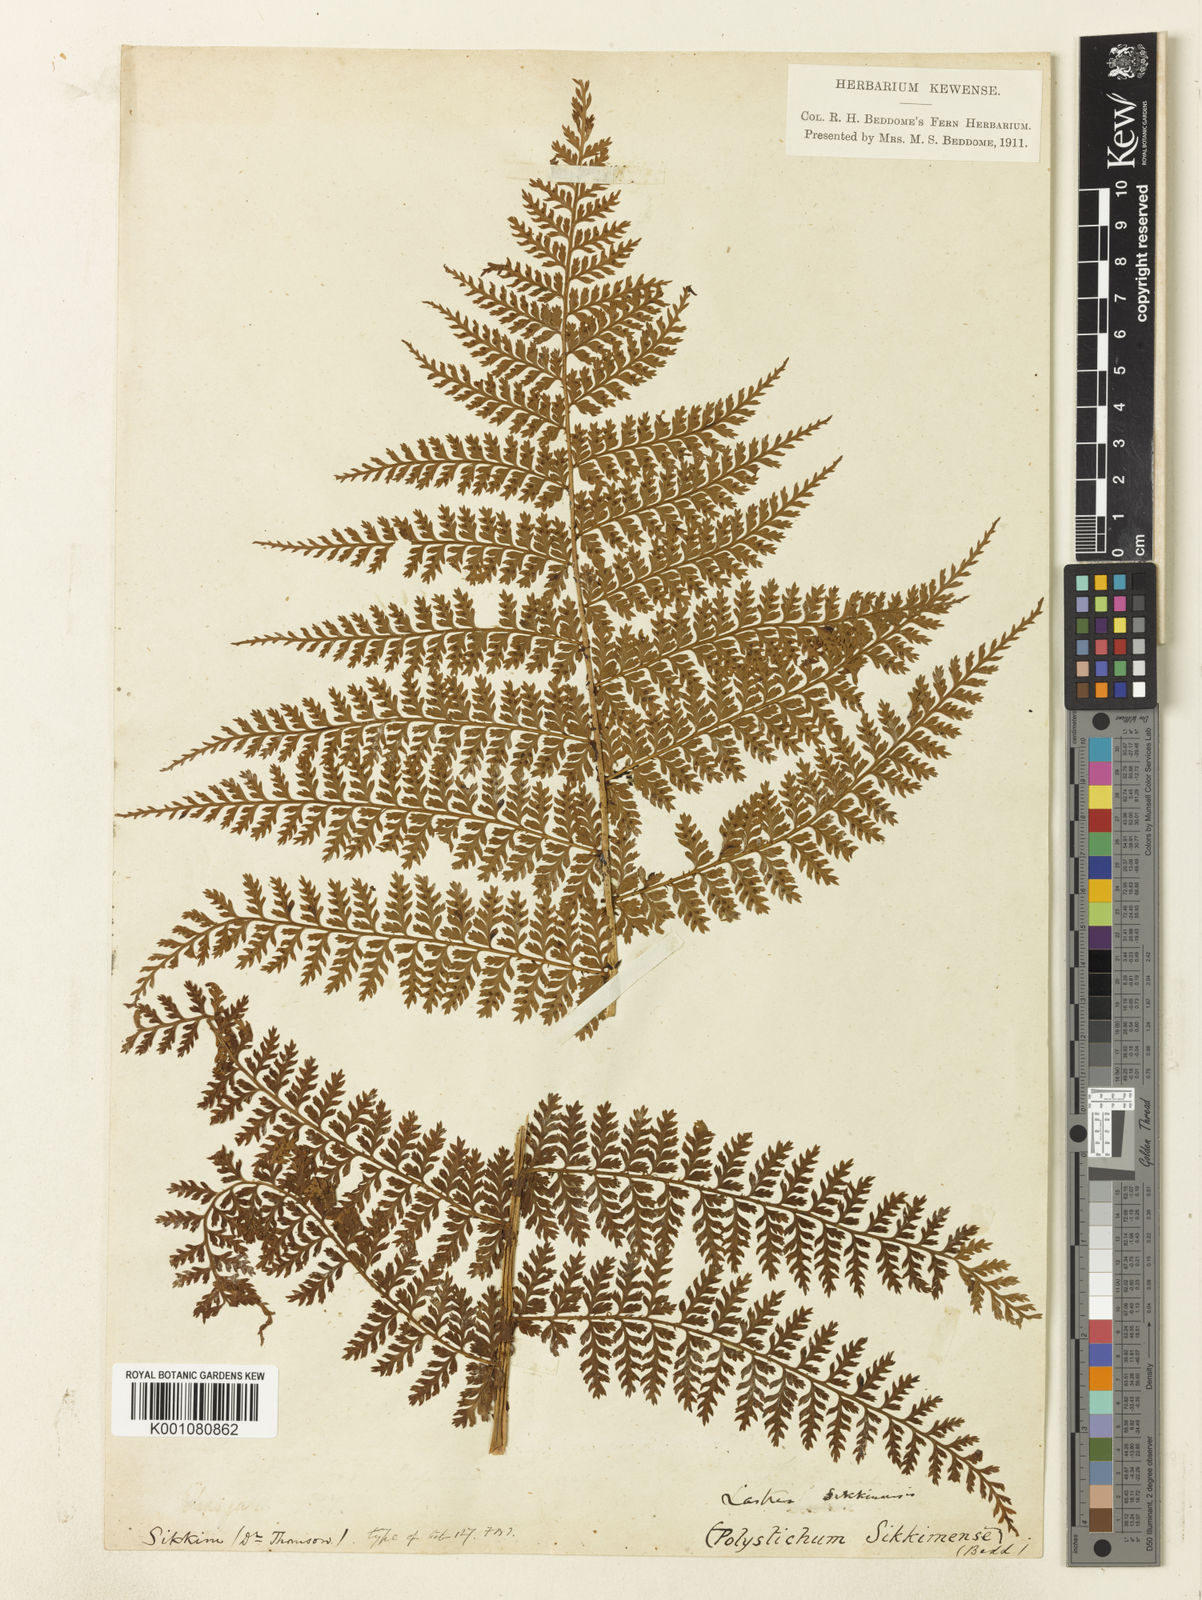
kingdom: Plantae
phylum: Tracheophyta
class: Polypodiopsida
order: Polypodiales
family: Dryopteridaceae
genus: Dryopteris
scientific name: Dryopteris sikkimensis
